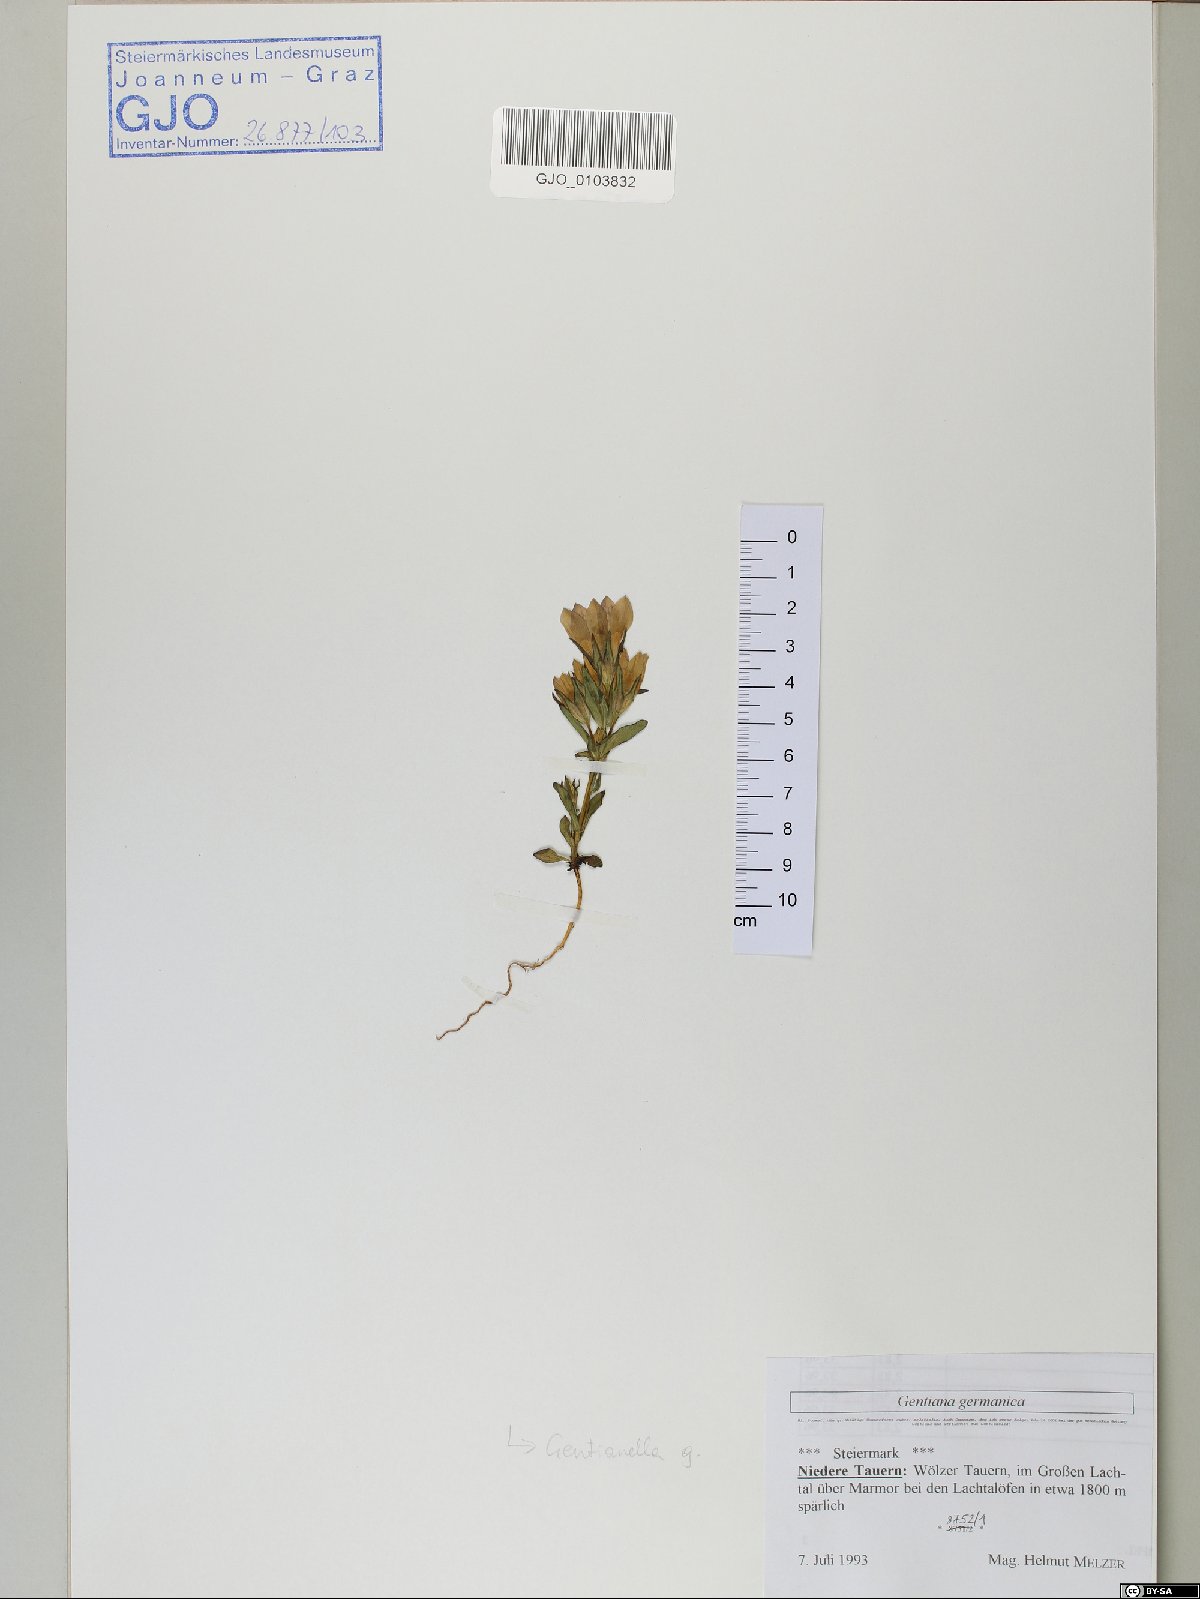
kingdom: Plantae
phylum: Tracheophyta
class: Magnoliopsida
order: Gentianales
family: Gentianaceae
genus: Gentianella
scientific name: Gentianella germanica
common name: Chiltern-gentian
